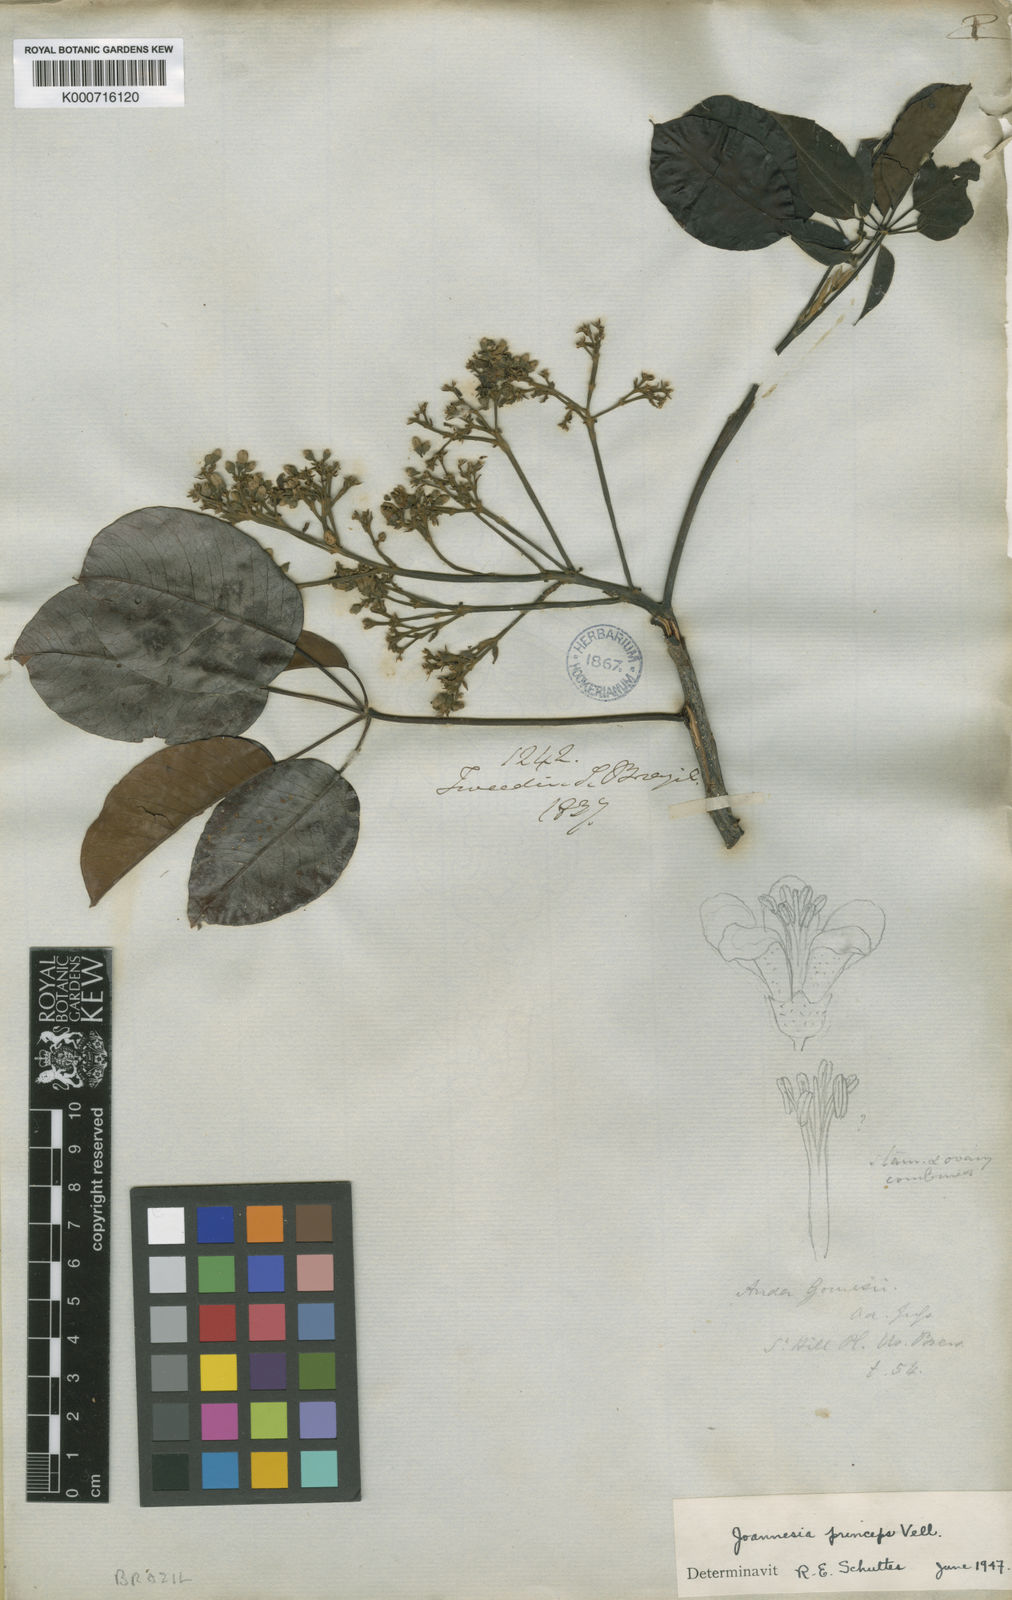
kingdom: Plantae
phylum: Tracheophyta
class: Magnoliopsida
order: Malpighiales
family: Euphorbiaceae
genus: Joannesia
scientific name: Joannesia princeps
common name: Arara nut-tree
